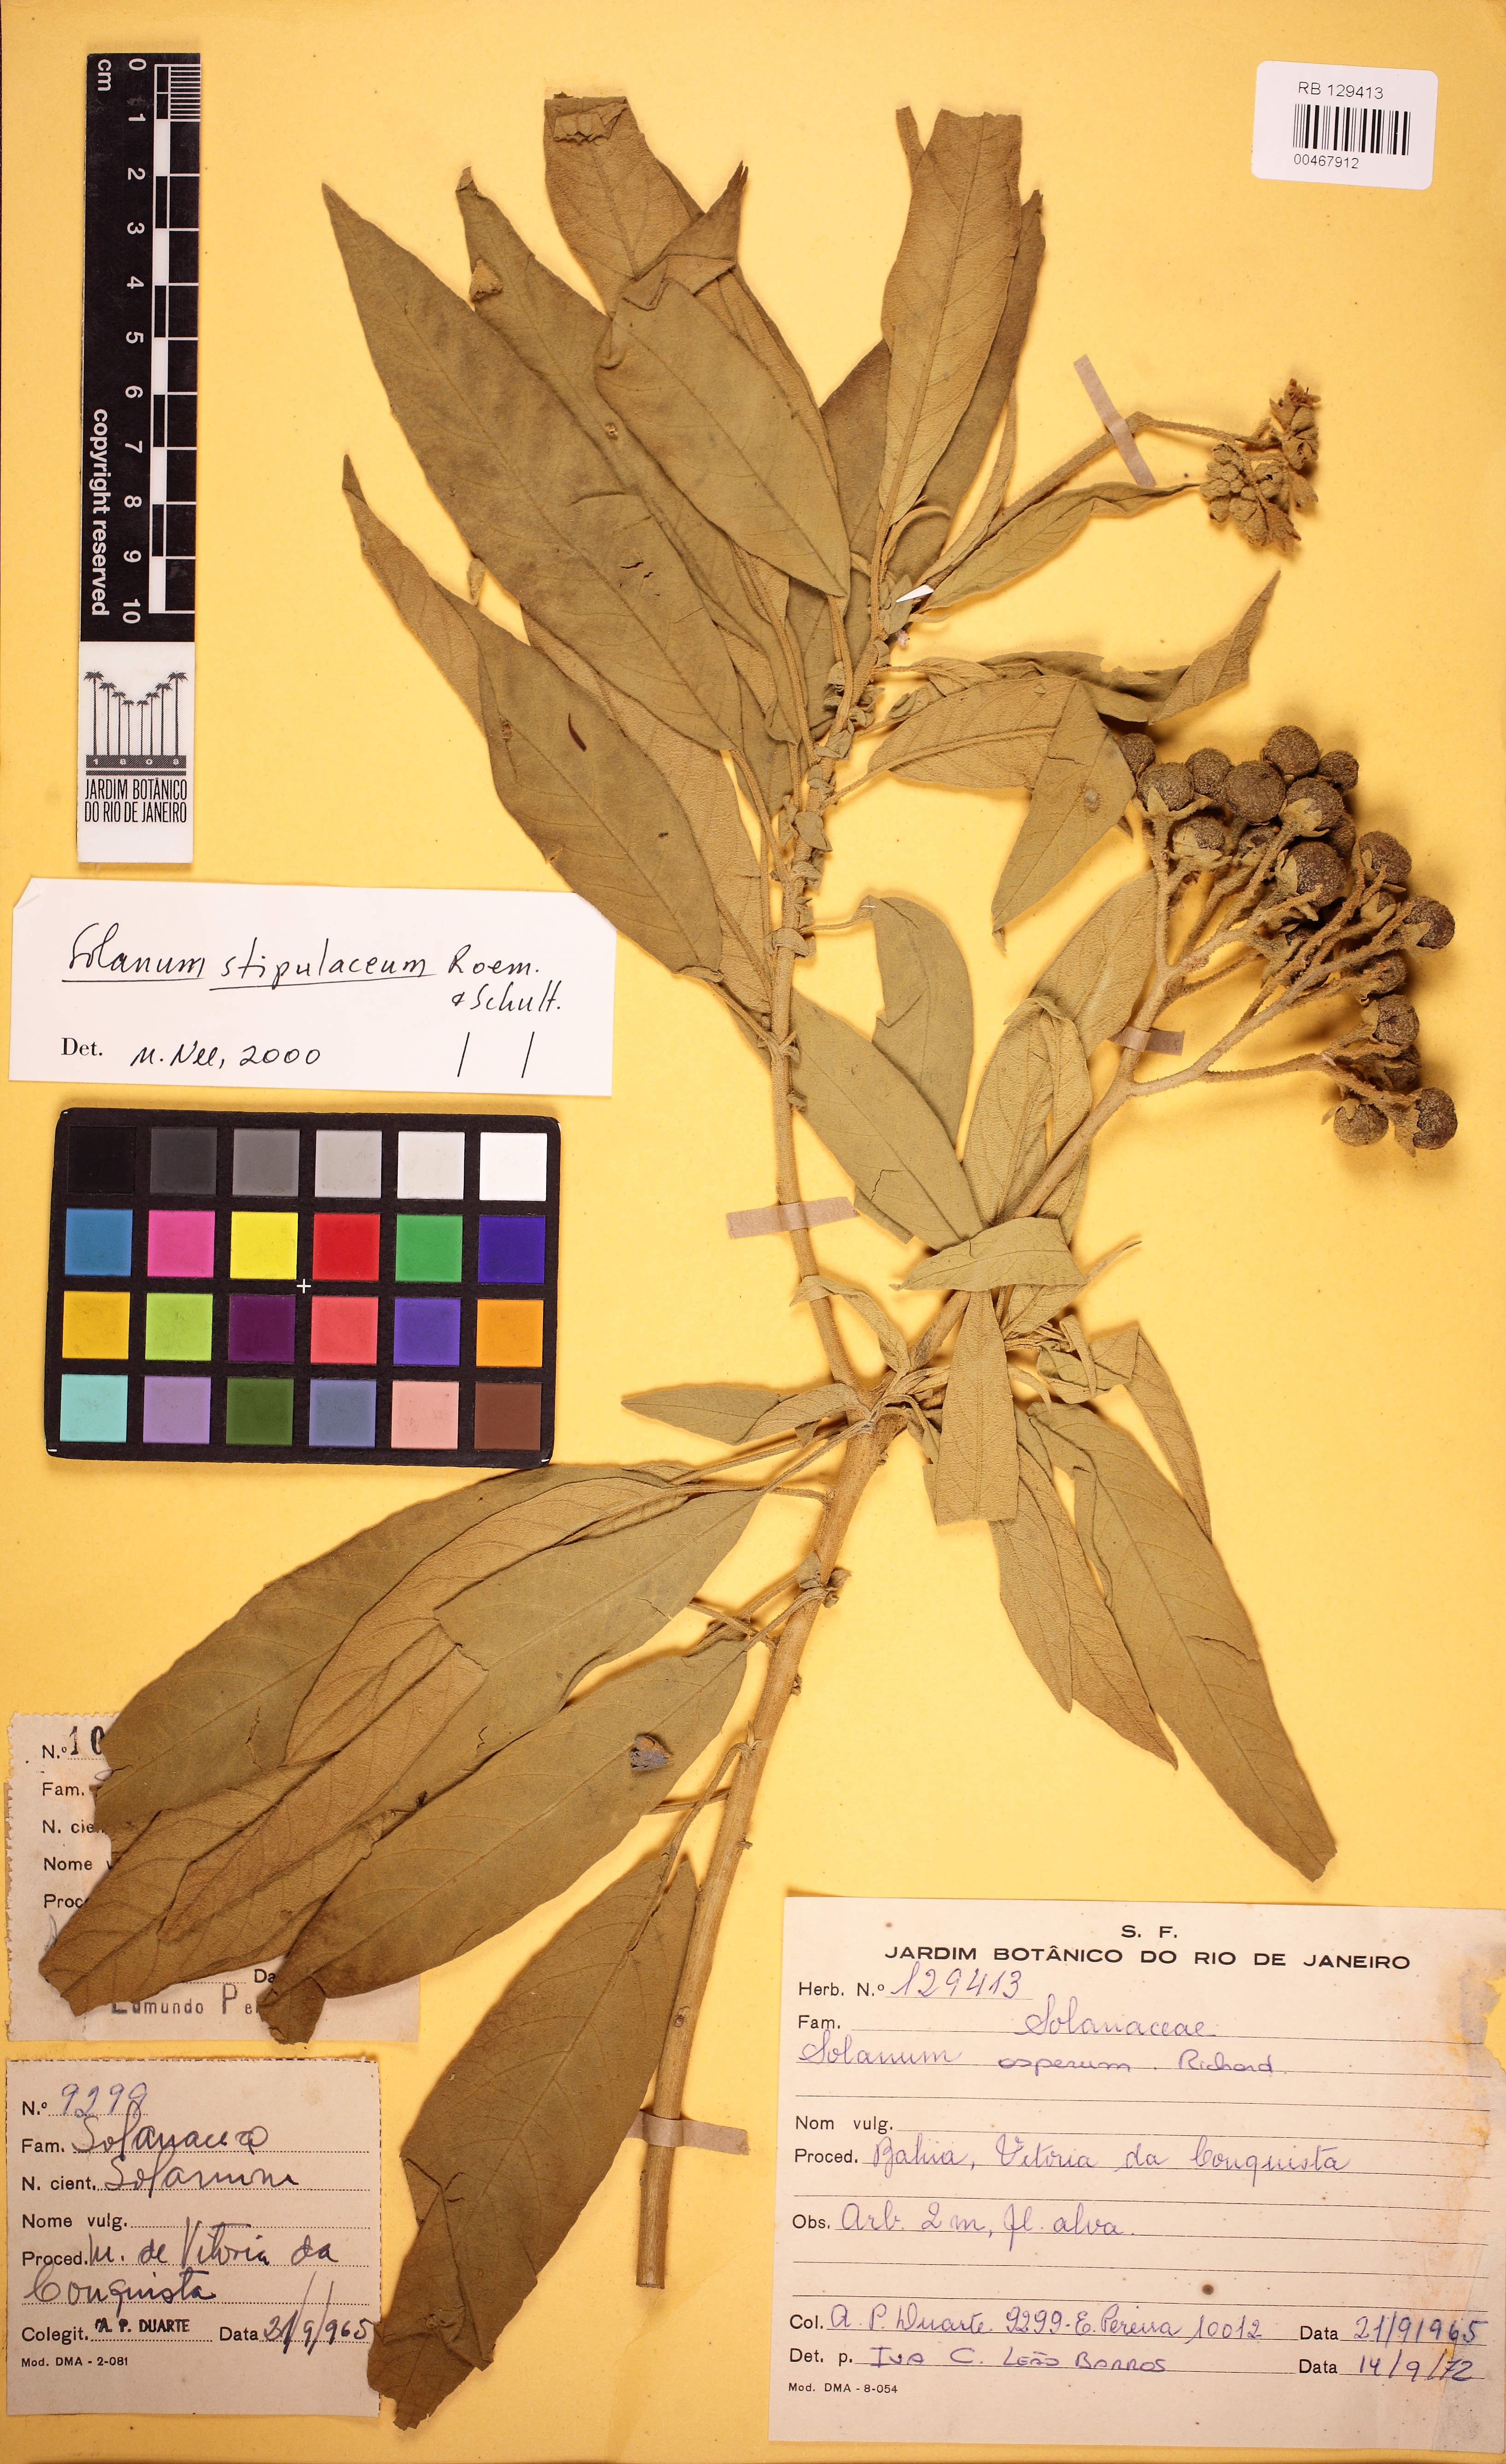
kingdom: Plantae
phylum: Tracheophyta
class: Magnoliopsida
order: Solanales
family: Solanaceae
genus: Solanum
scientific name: Solanum stipulaceum
